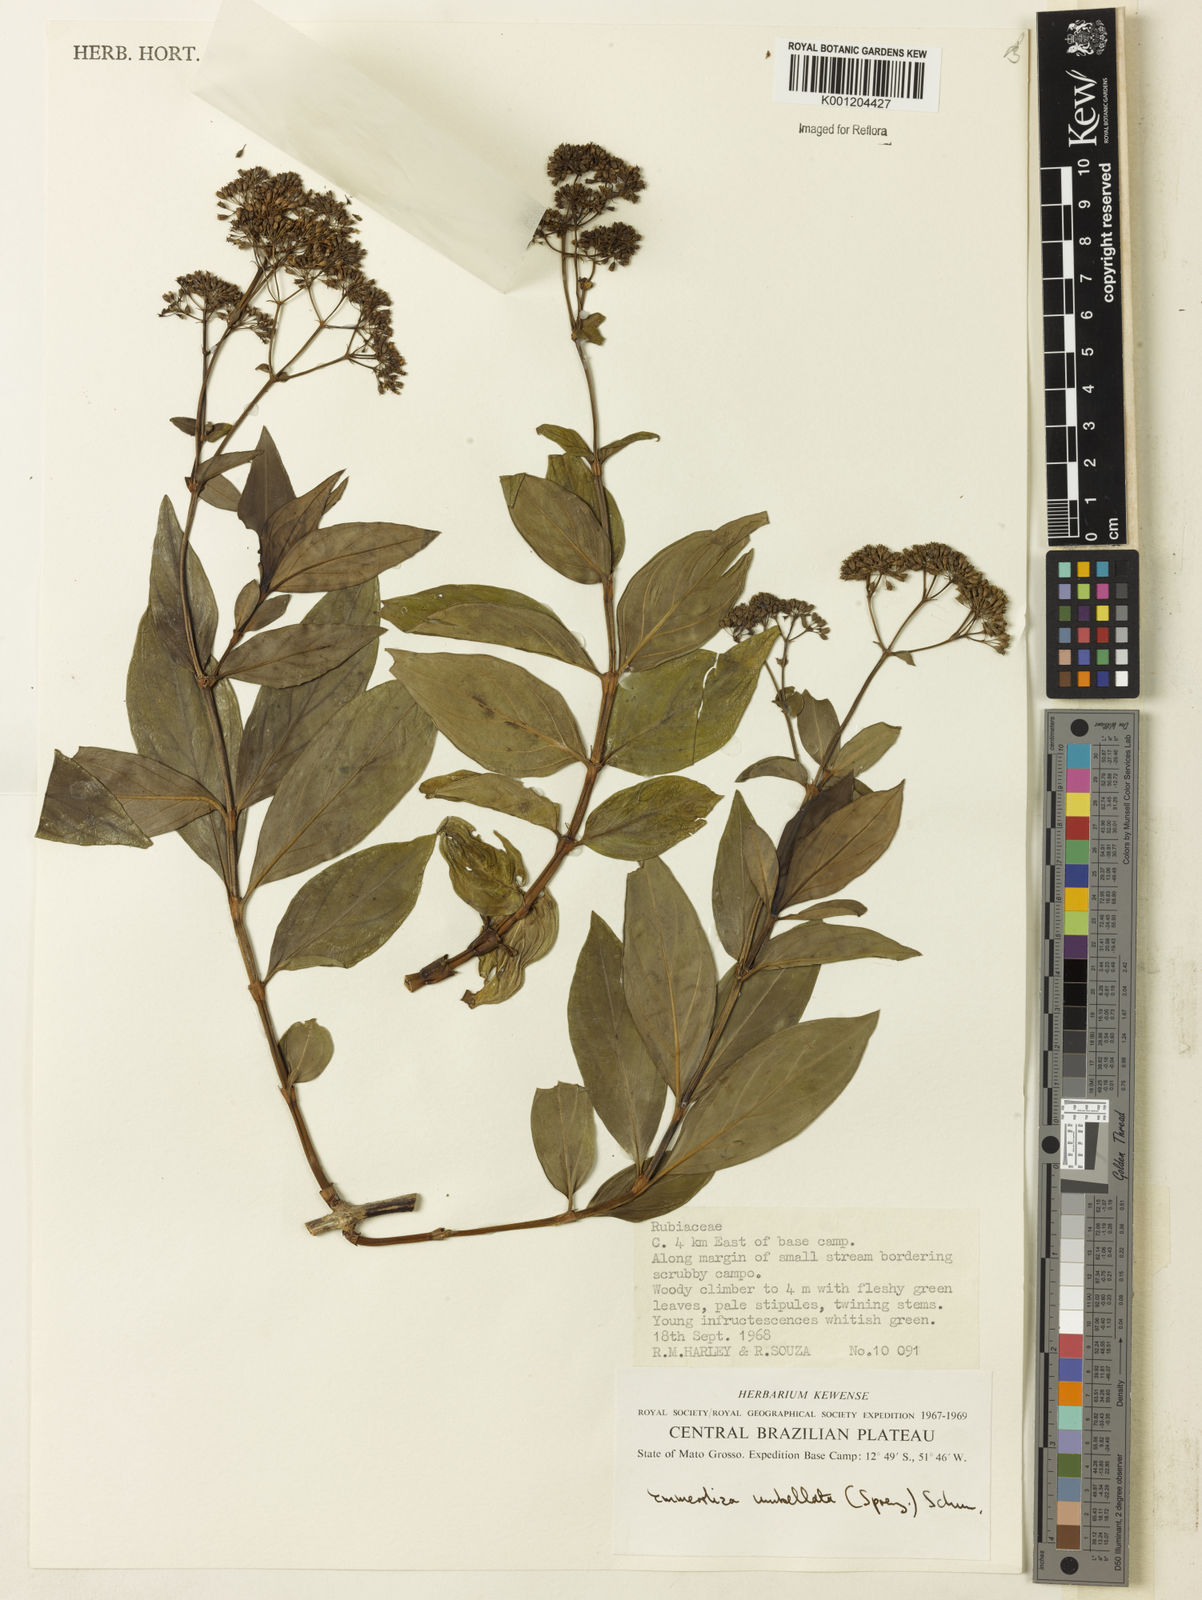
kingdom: Plantae
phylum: Tracheophyta
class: Magnoliopsida
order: Gentianales
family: Rubiaceae
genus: Emmeorhiza
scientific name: Emmeorhiza umbellata
